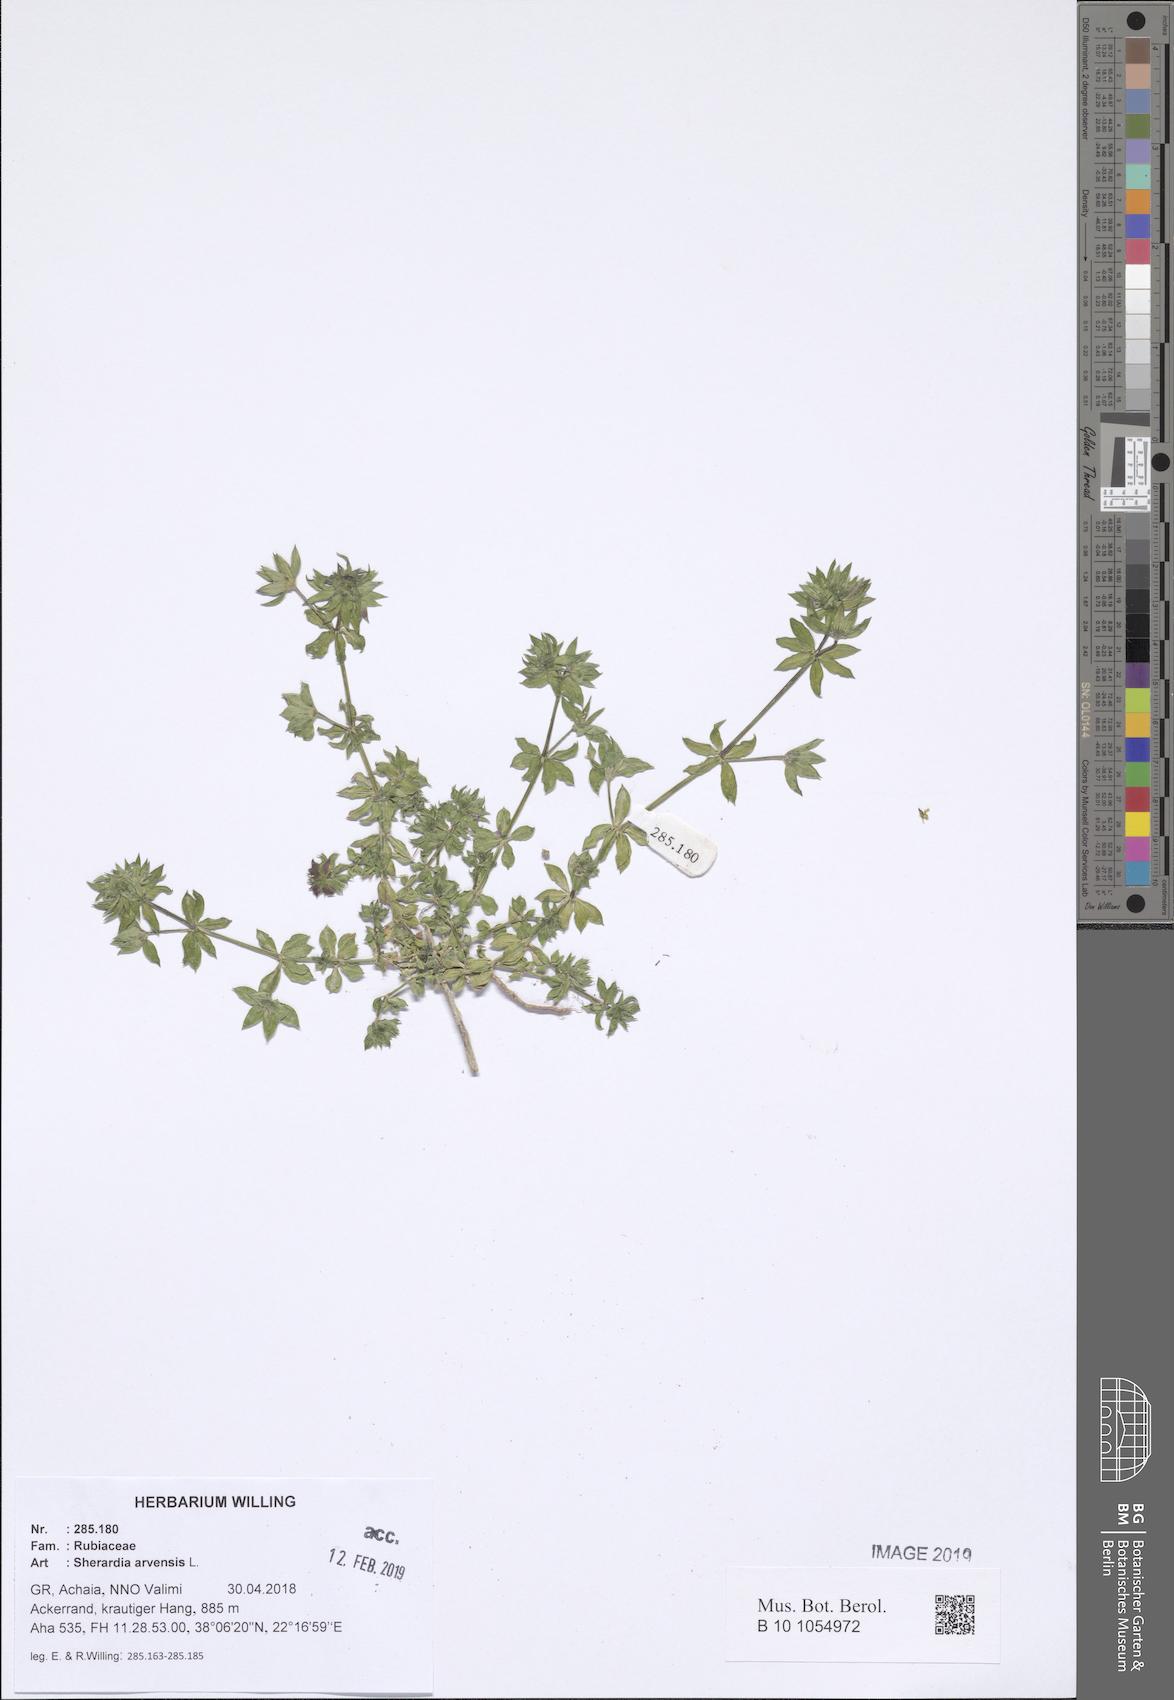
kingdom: Plantae
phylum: Tracheophyta
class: Magnoliopsida
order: Gentianales
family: Rubiaceae
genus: Sherardia
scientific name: Sherardia arvensis
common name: Field madder
